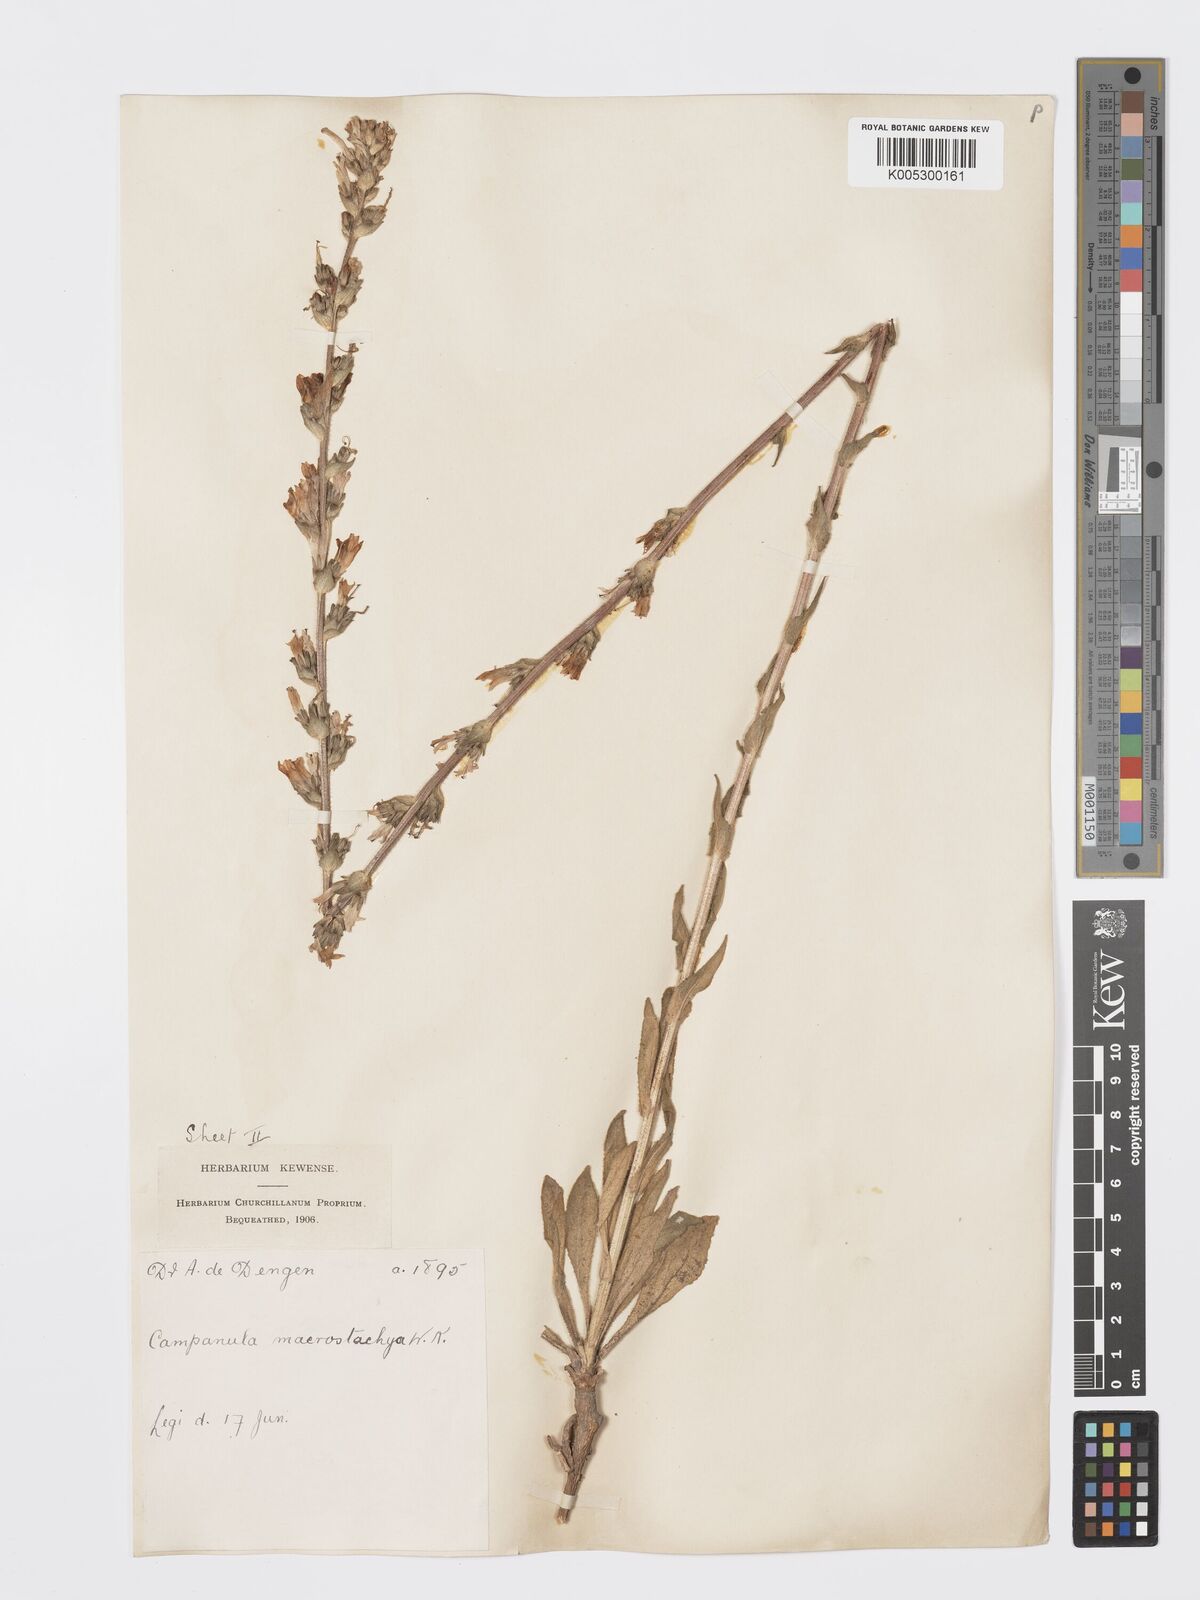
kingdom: Plantae
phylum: Tracheophyta
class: Magnoliopsida
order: Asterales
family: Campanulaceae
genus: Campanula
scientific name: Campanula
